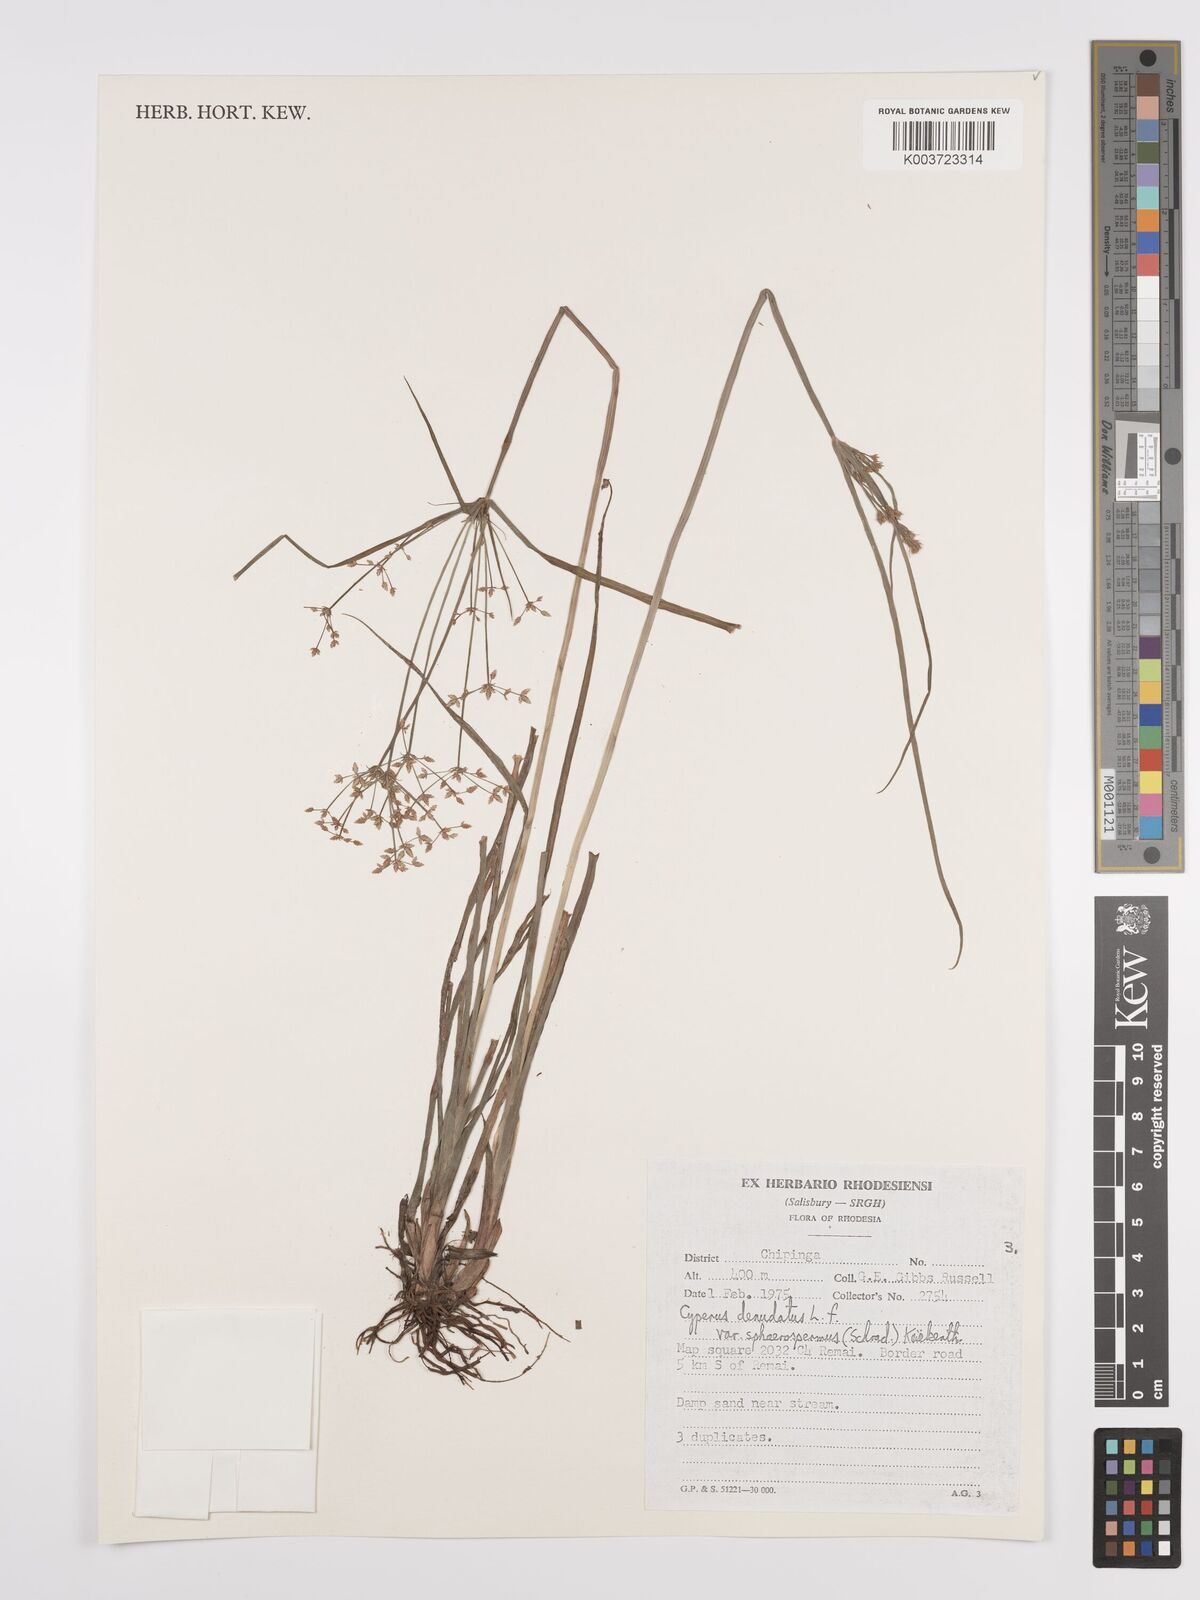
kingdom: Plantae
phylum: Tracheophyta
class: Liliopsida
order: Poales
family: Cyperaceae
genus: Cyperus
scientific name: Cyperus denudatus
